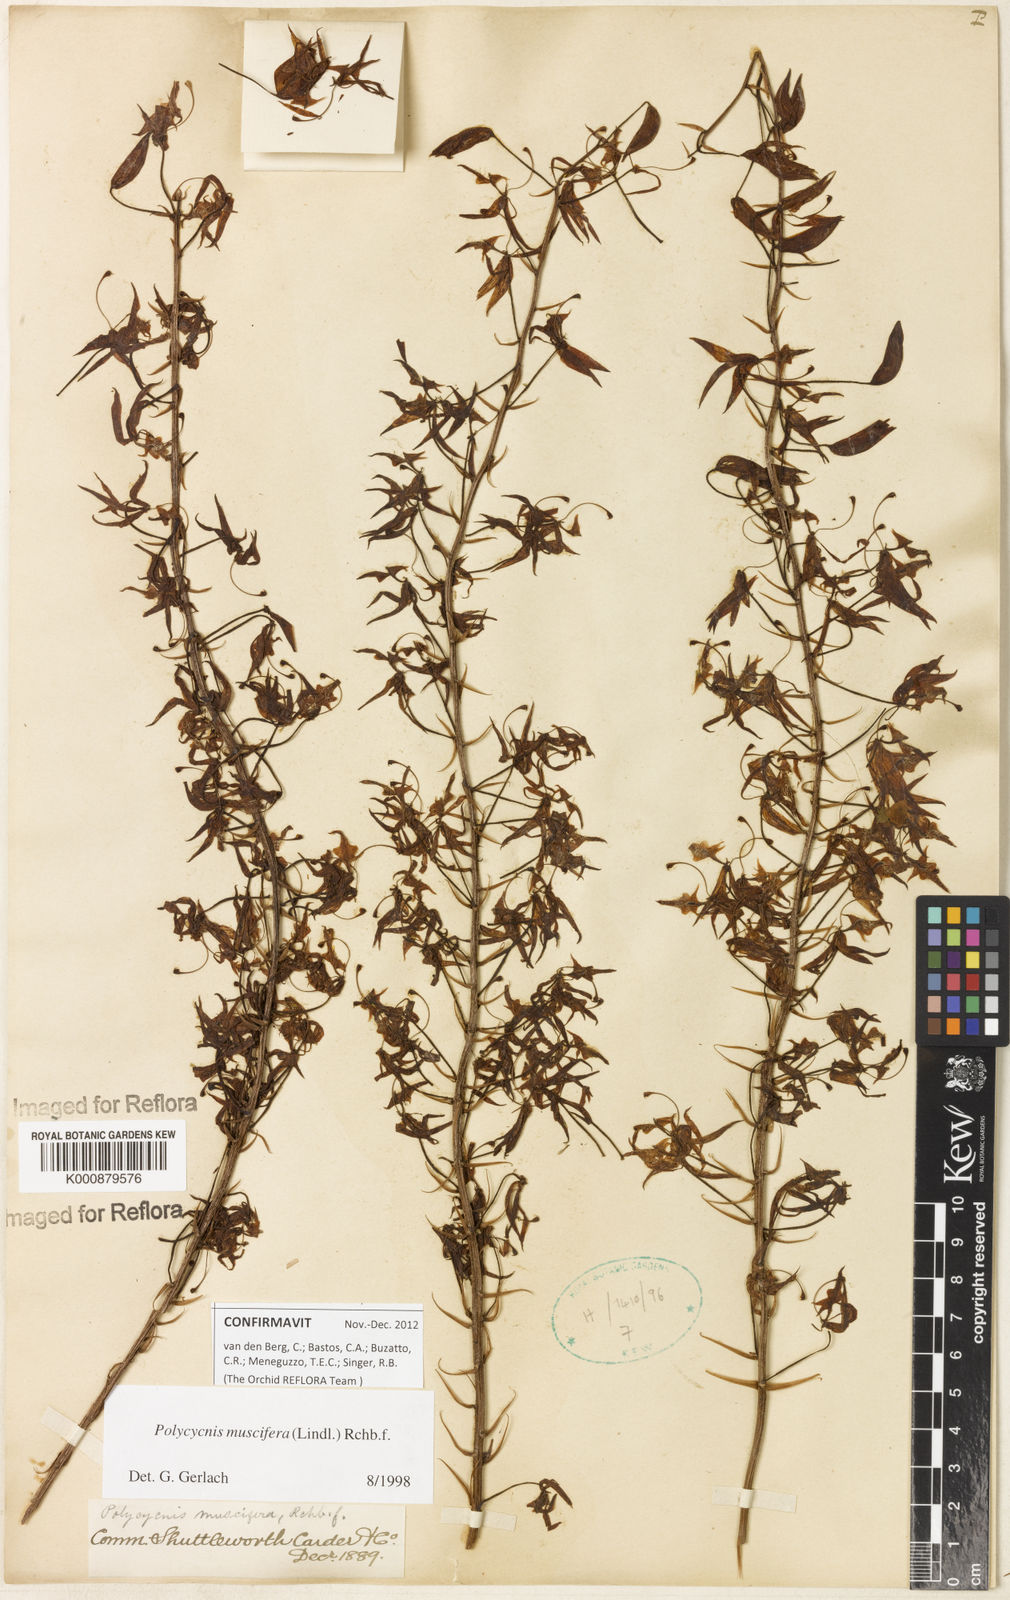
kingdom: Plantae
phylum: Tracheophyta
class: Liliopsida
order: Asparagales
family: Orchidaceae
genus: Polycycnis
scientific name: Polycycnis muscifera
